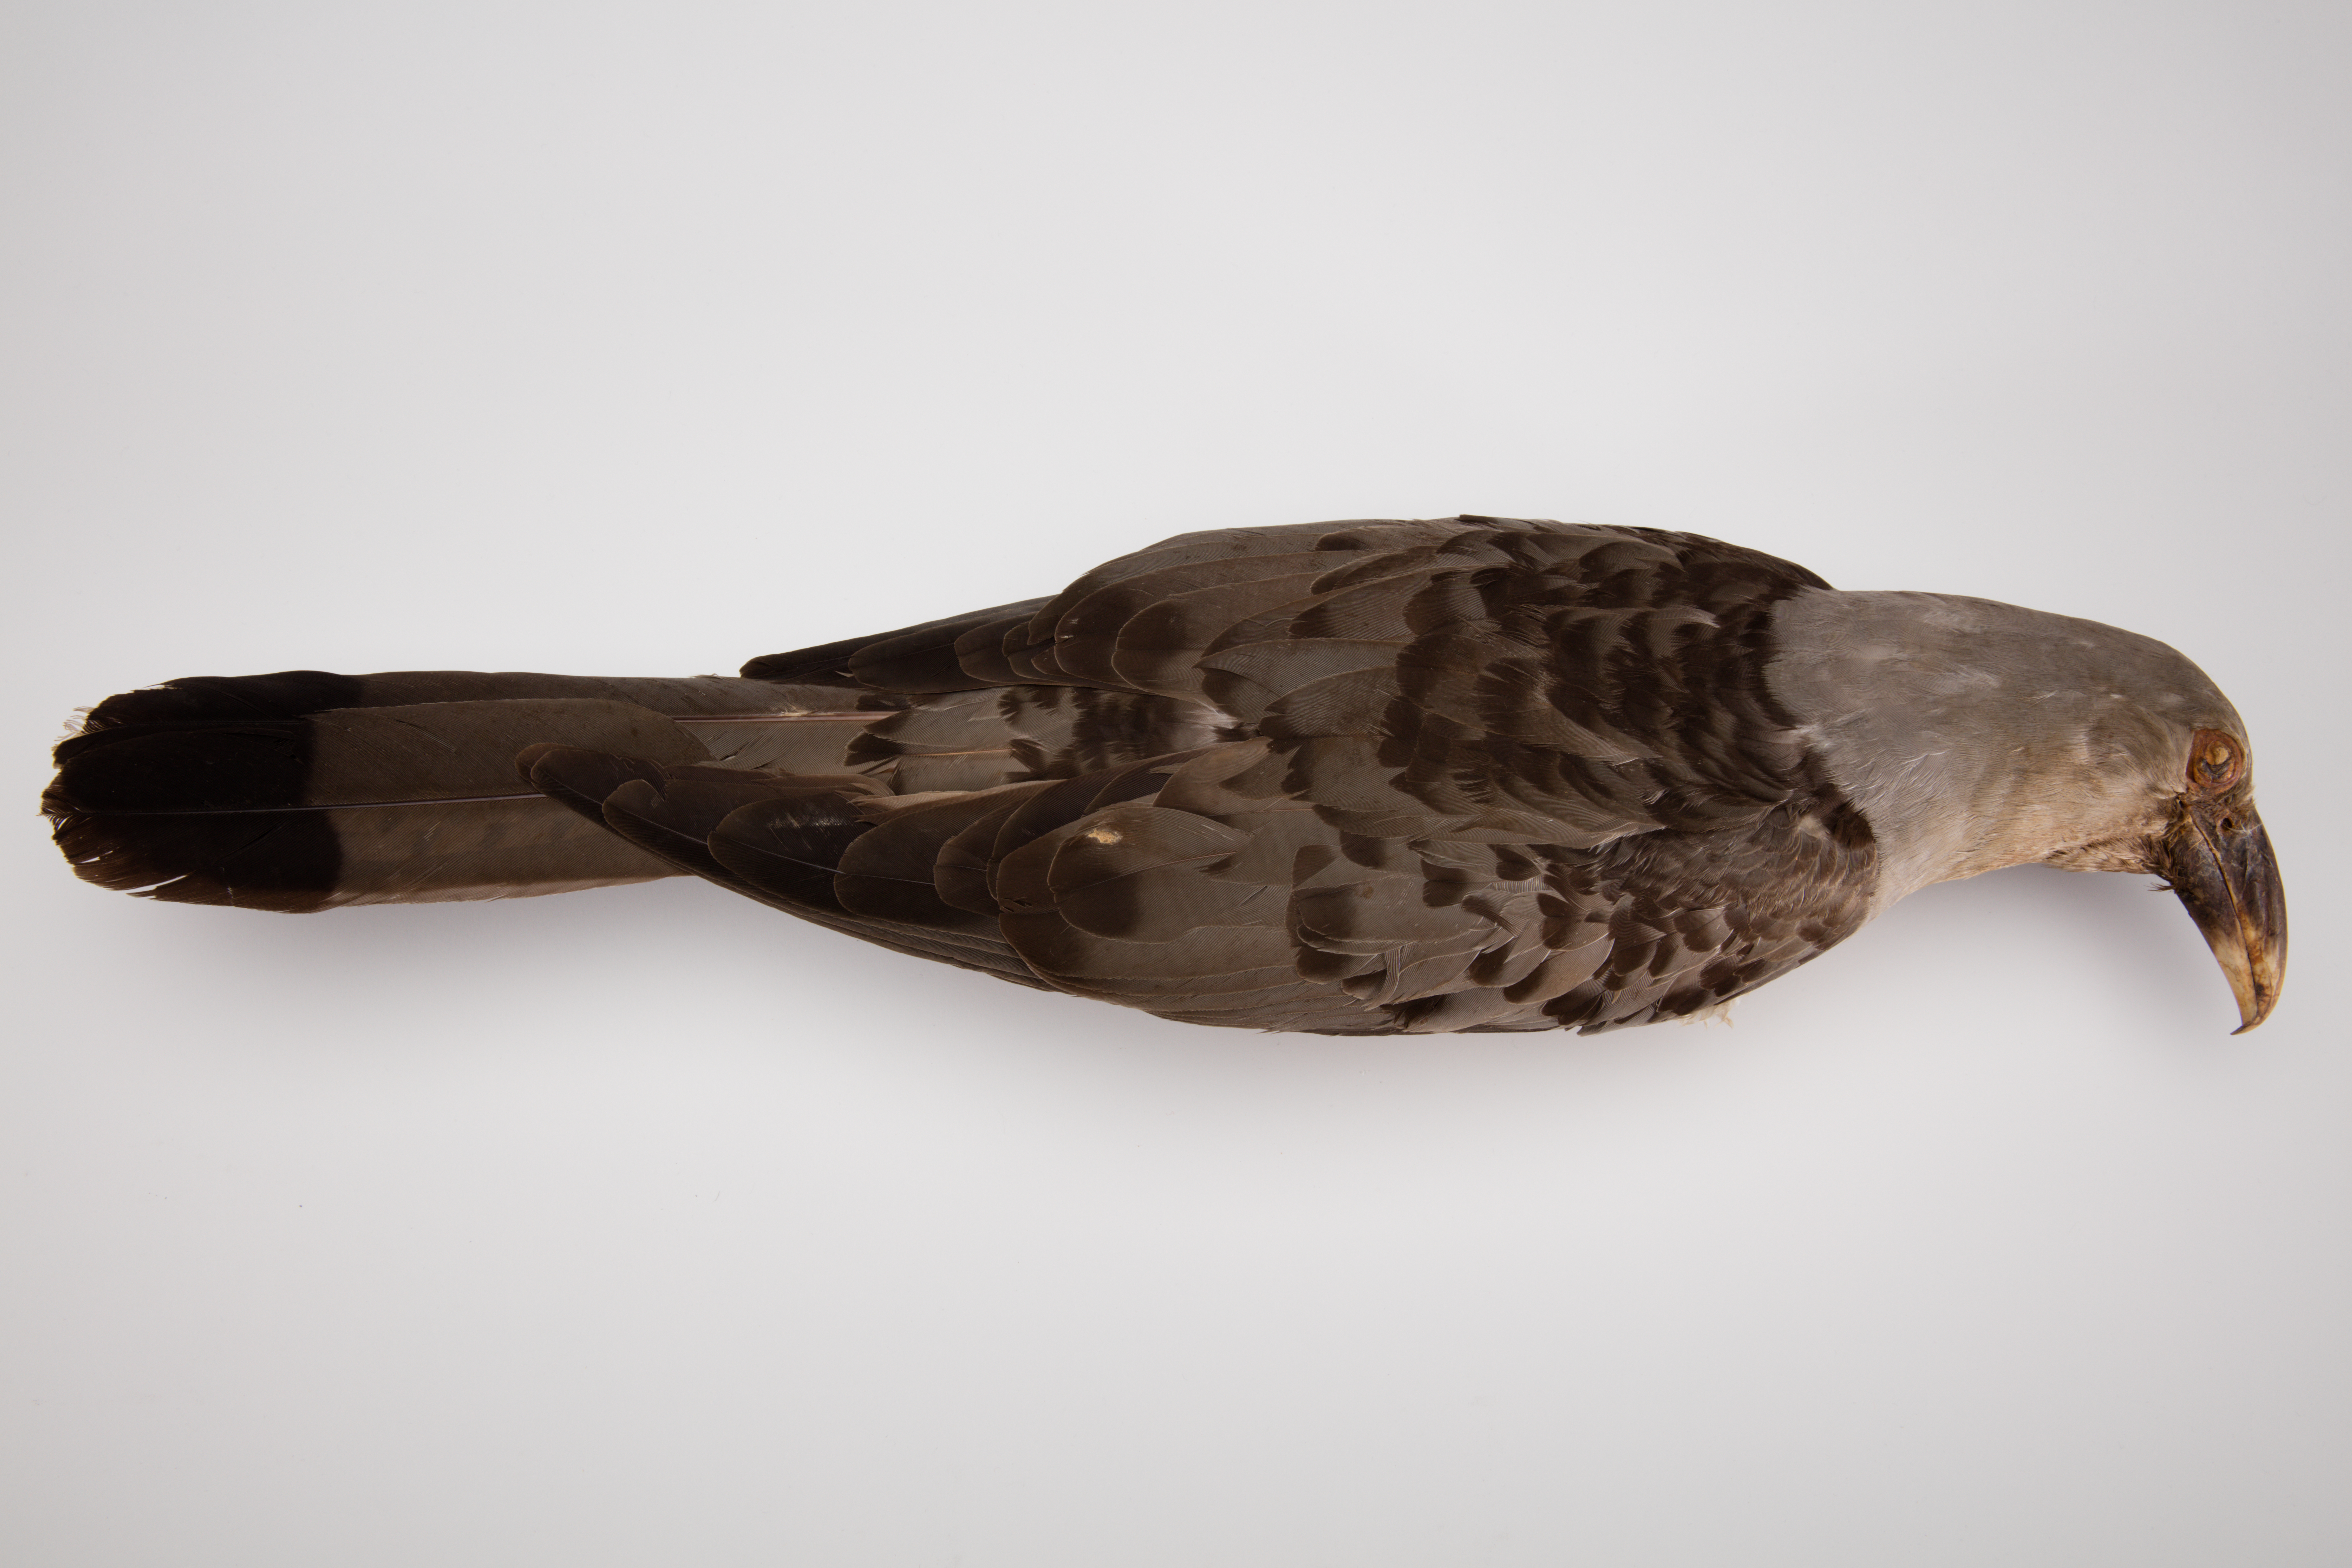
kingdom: Animalia
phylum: Chordata
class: Aves
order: Cuculiformes
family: Cuculidae
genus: Scythrops
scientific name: Scythrops novaehollandiae
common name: Channel-billed cuckoo
